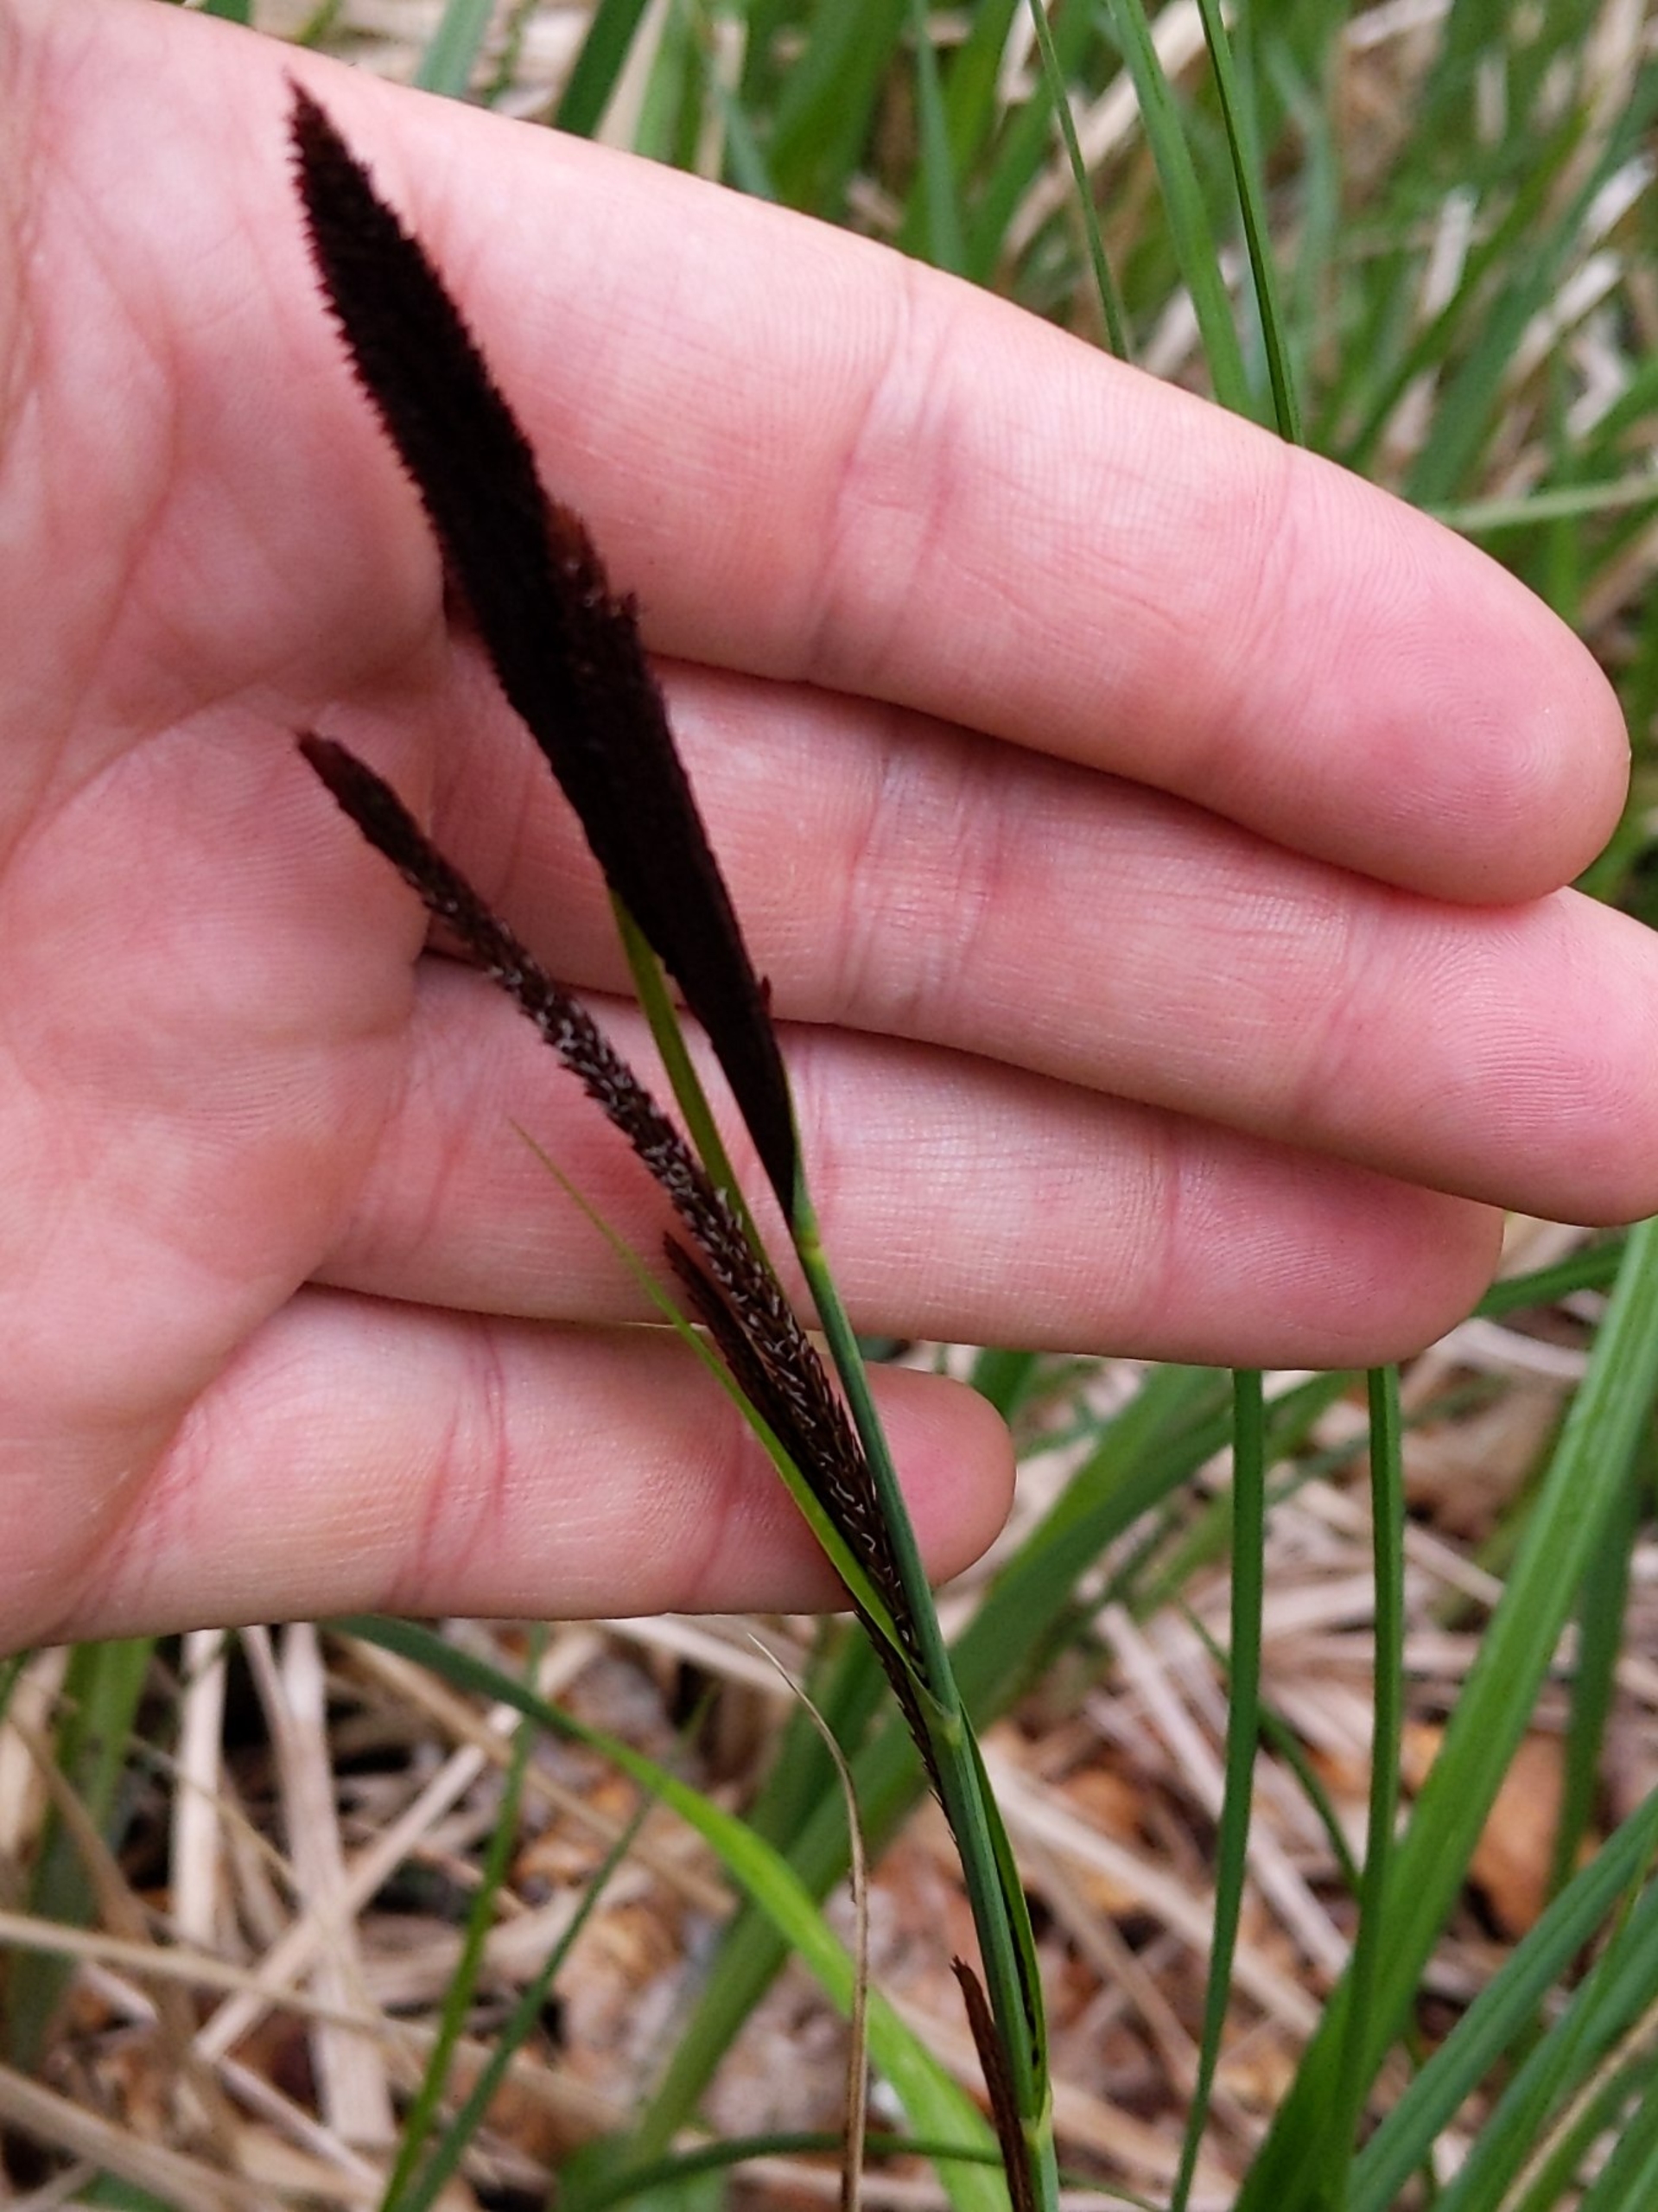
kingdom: Plantae
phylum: Tracheophyta
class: Liliopsida
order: Poales
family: Cyperaceae
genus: Carex
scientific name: Carex acutiformis
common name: Kær-star
